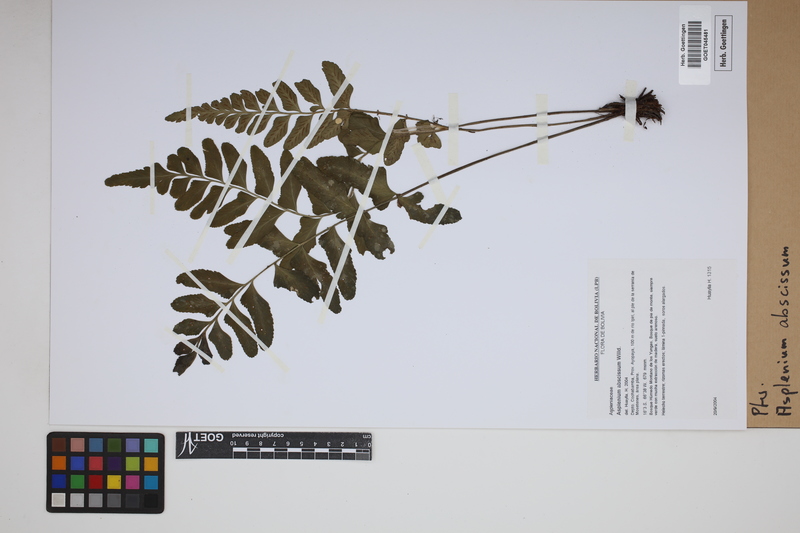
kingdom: Plantae
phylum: Tracheophyta
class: Polypodiopsida
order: Polypodiales
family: Aspleniaceae
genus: Asplenium
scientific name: Asplenium abscissum
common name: Cutleaf spleenwort
